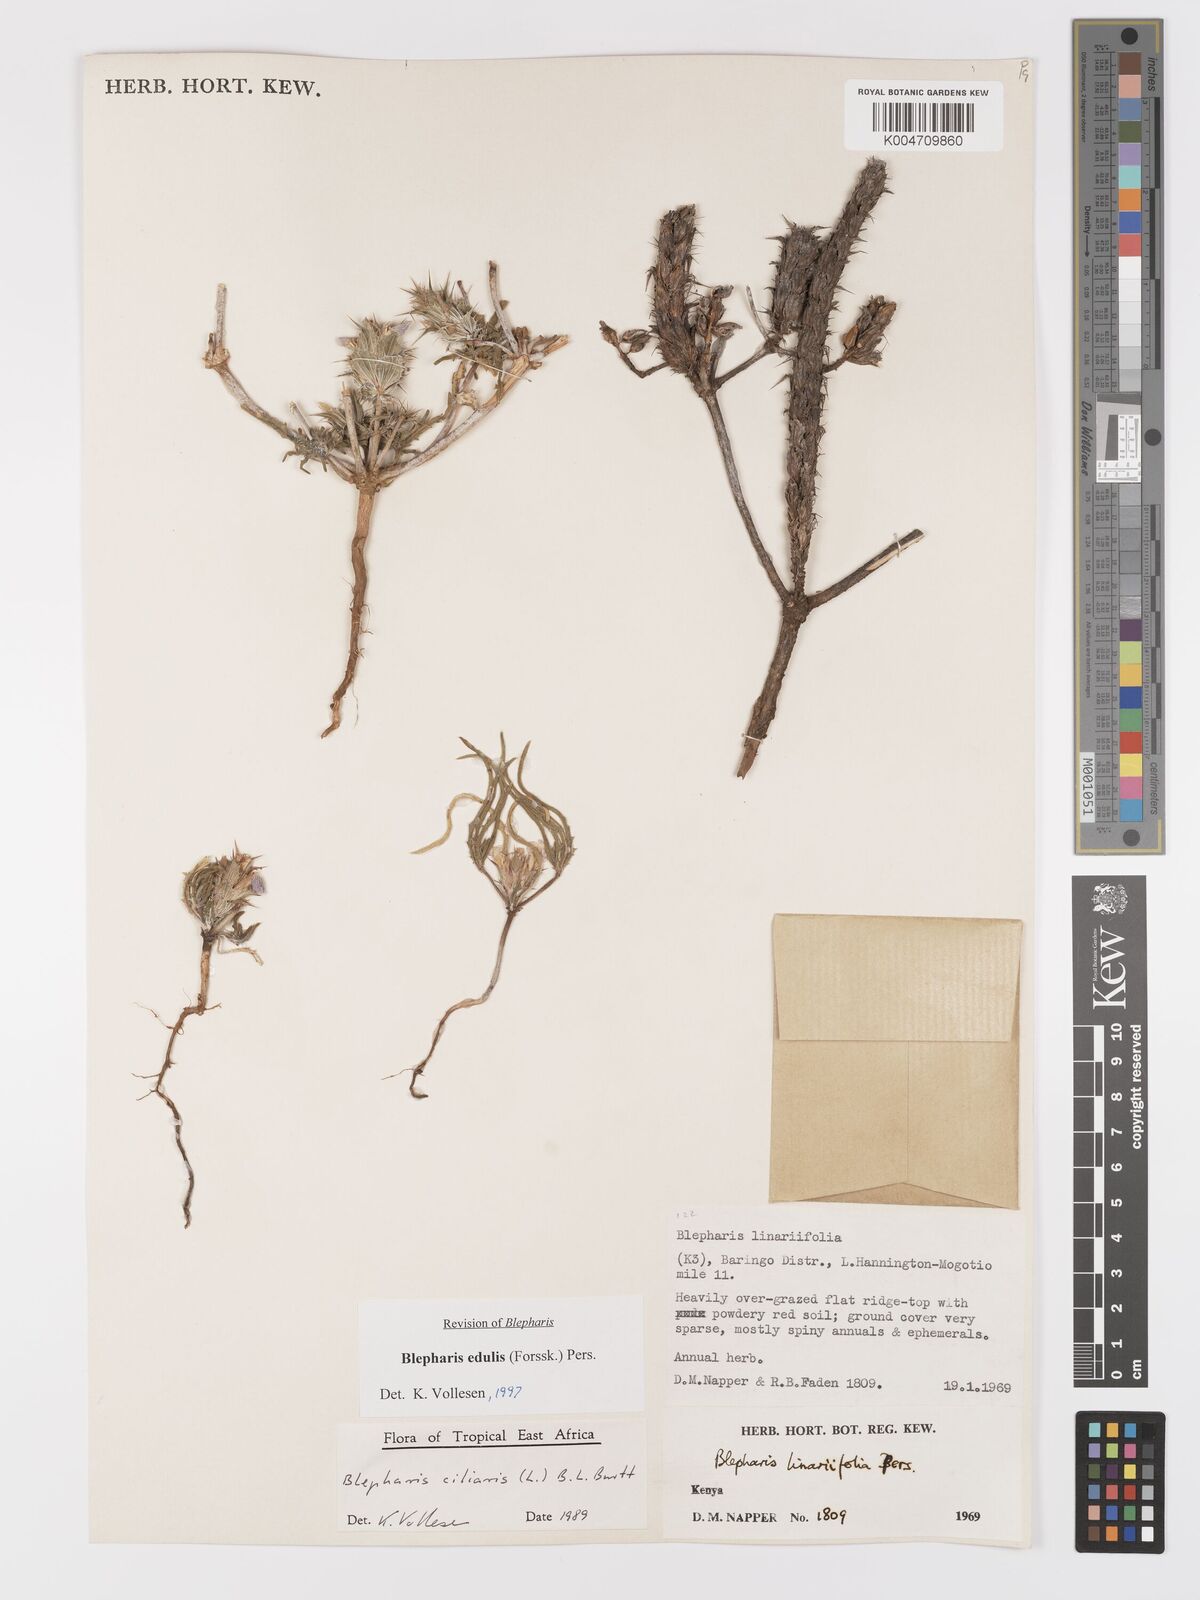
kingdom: Plantae
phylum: Tracheophyta
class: Magnoliopsida
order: Lamiales
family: Acanthaceae
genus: Blepharis
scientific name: Blepharis edulis
